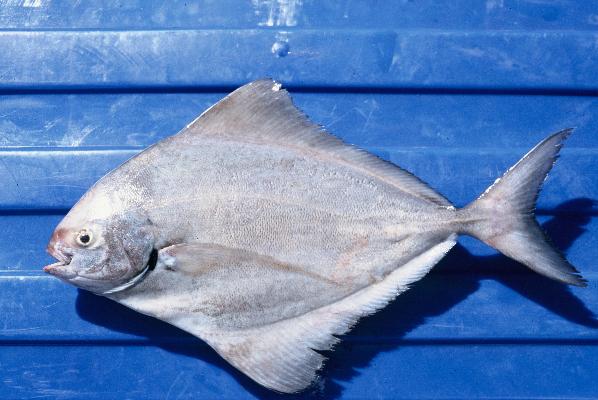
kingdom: Animalia
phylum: Chordata
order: Perciformes
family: Carangidae
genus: Parastromateus
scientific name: Parastromateus niger
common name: Black pomfret
